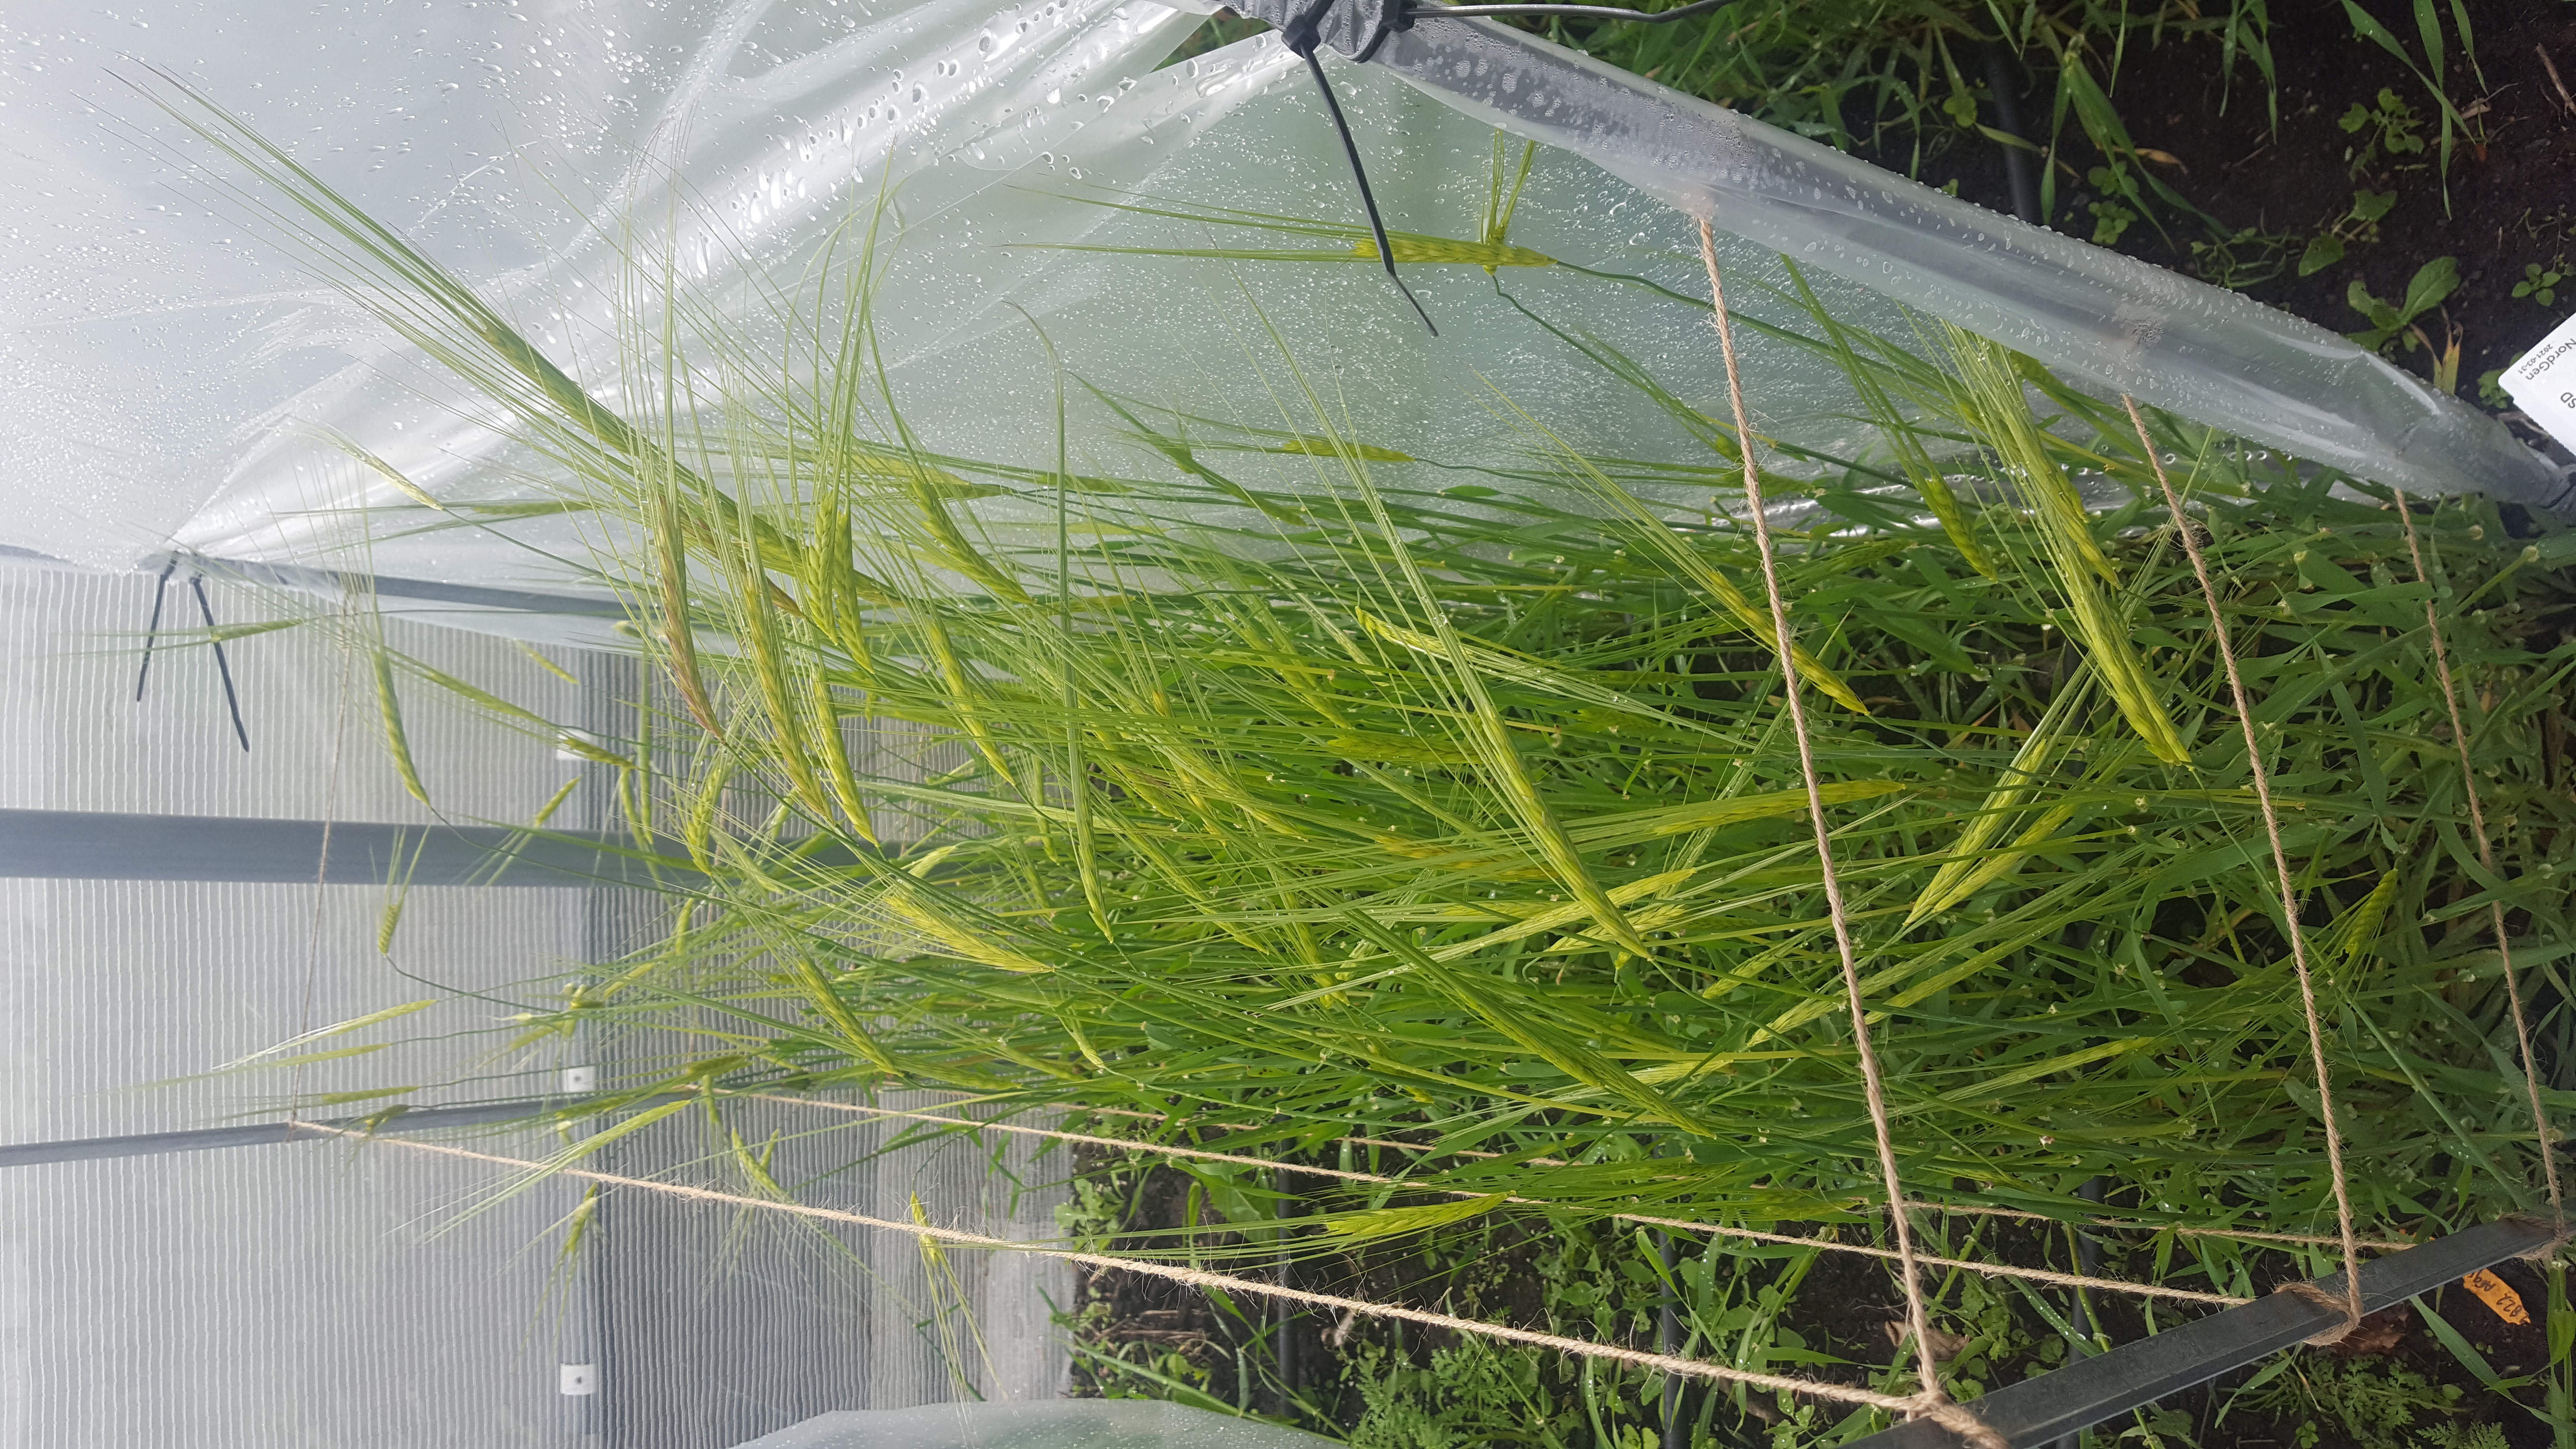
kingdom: Plantae
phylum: Tracheophyta
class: Liliopsida
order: Poales
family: Poaceae
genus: Hordeum
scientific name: Hordeum spontaneum
